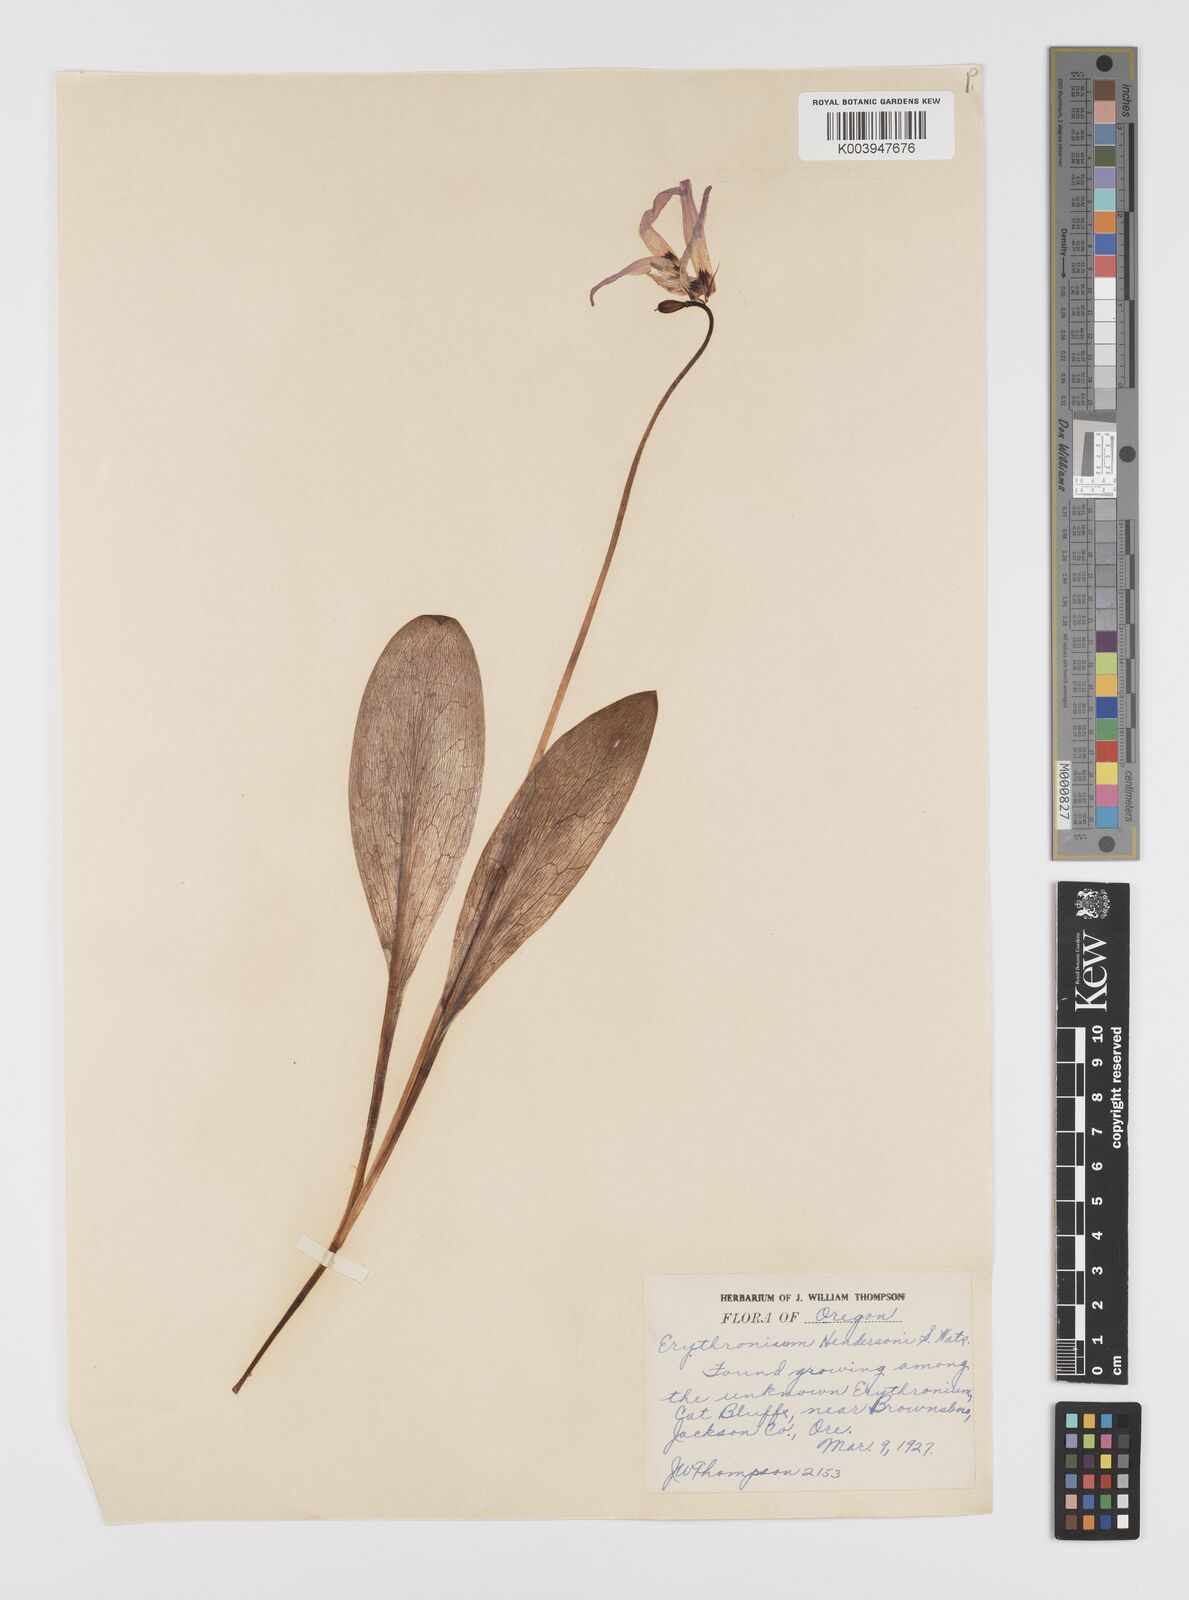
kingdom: Plantae
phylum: Tracheophyta
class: Liliopsida
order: Liliales
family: Liliaceae
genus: Erythronium
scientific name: Erythronium hendersonii
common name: Henderson's fawn-lily
